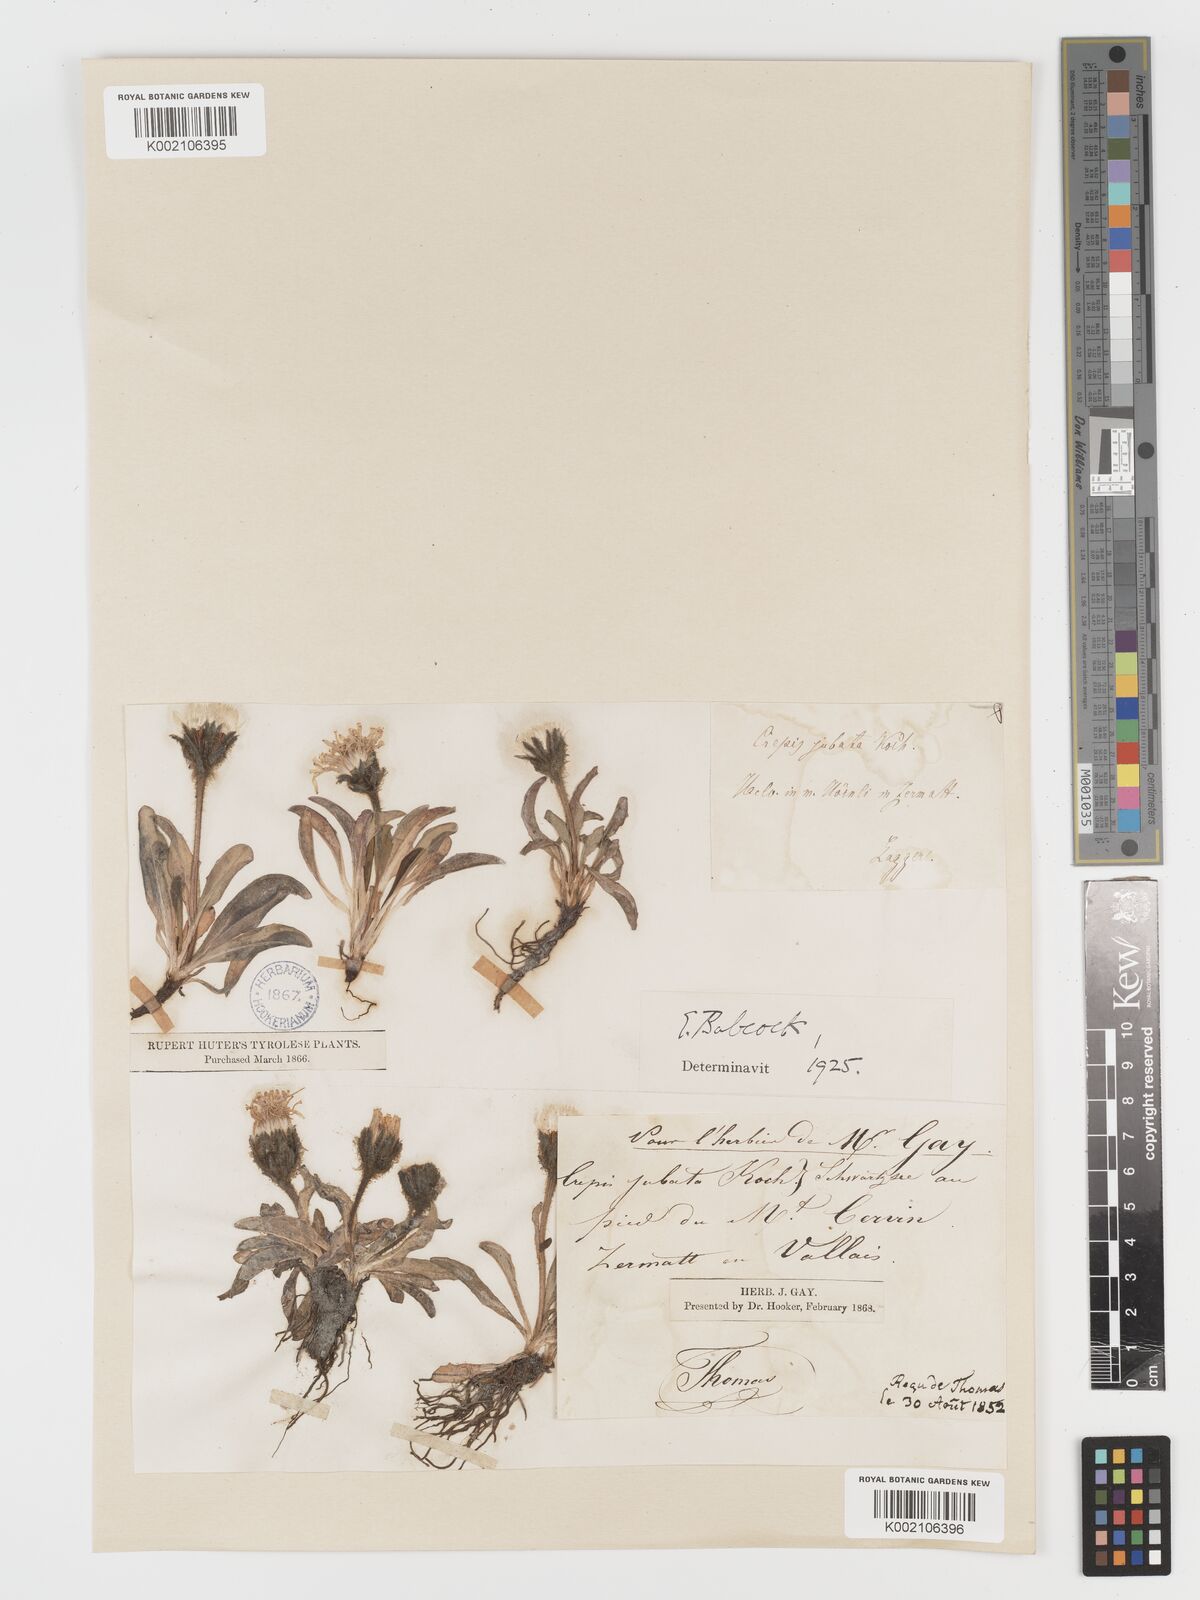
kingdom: Plantae
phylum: Tracheophyta
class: Magnoliopsida
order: Asterales
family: Asteraceae
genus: Crepis
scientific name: Crepis rhaetica
